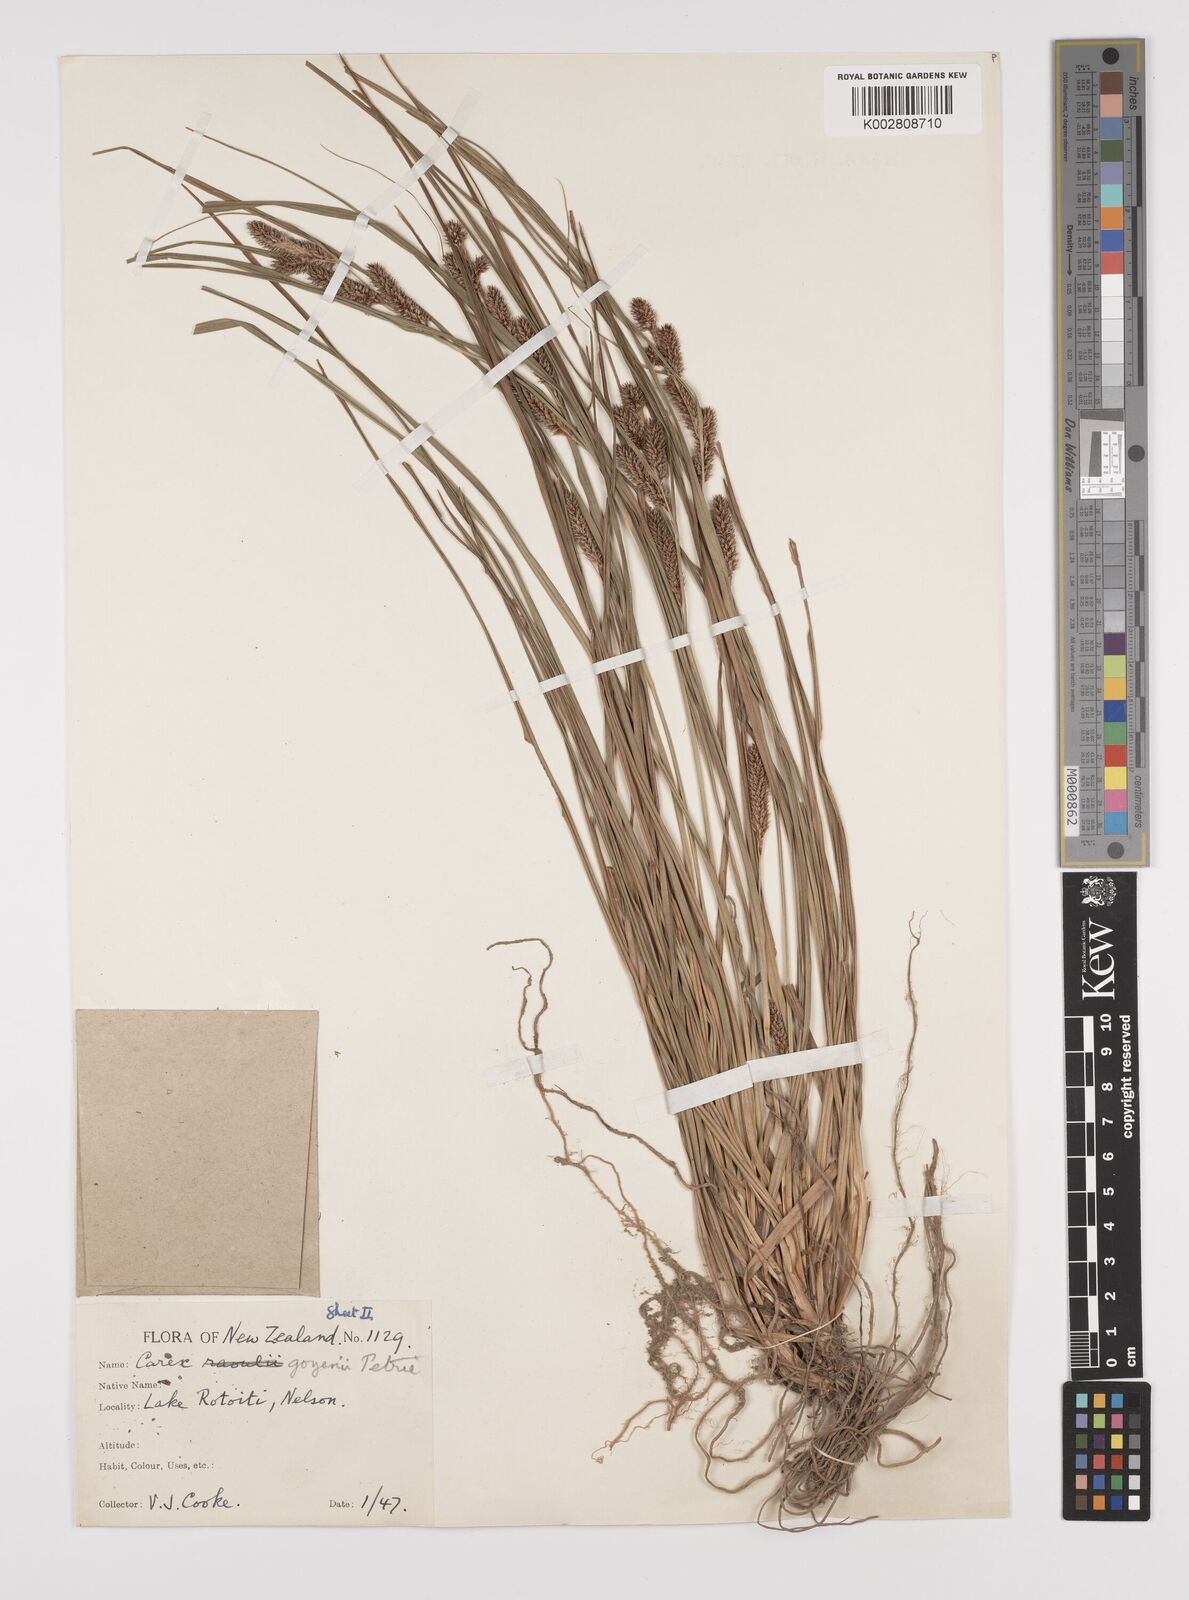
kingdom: Plantae
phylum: Tracheophyta
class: Liliopsida
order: Poales
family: Cyperaceae
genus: Carex
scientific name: Carex raoulii
